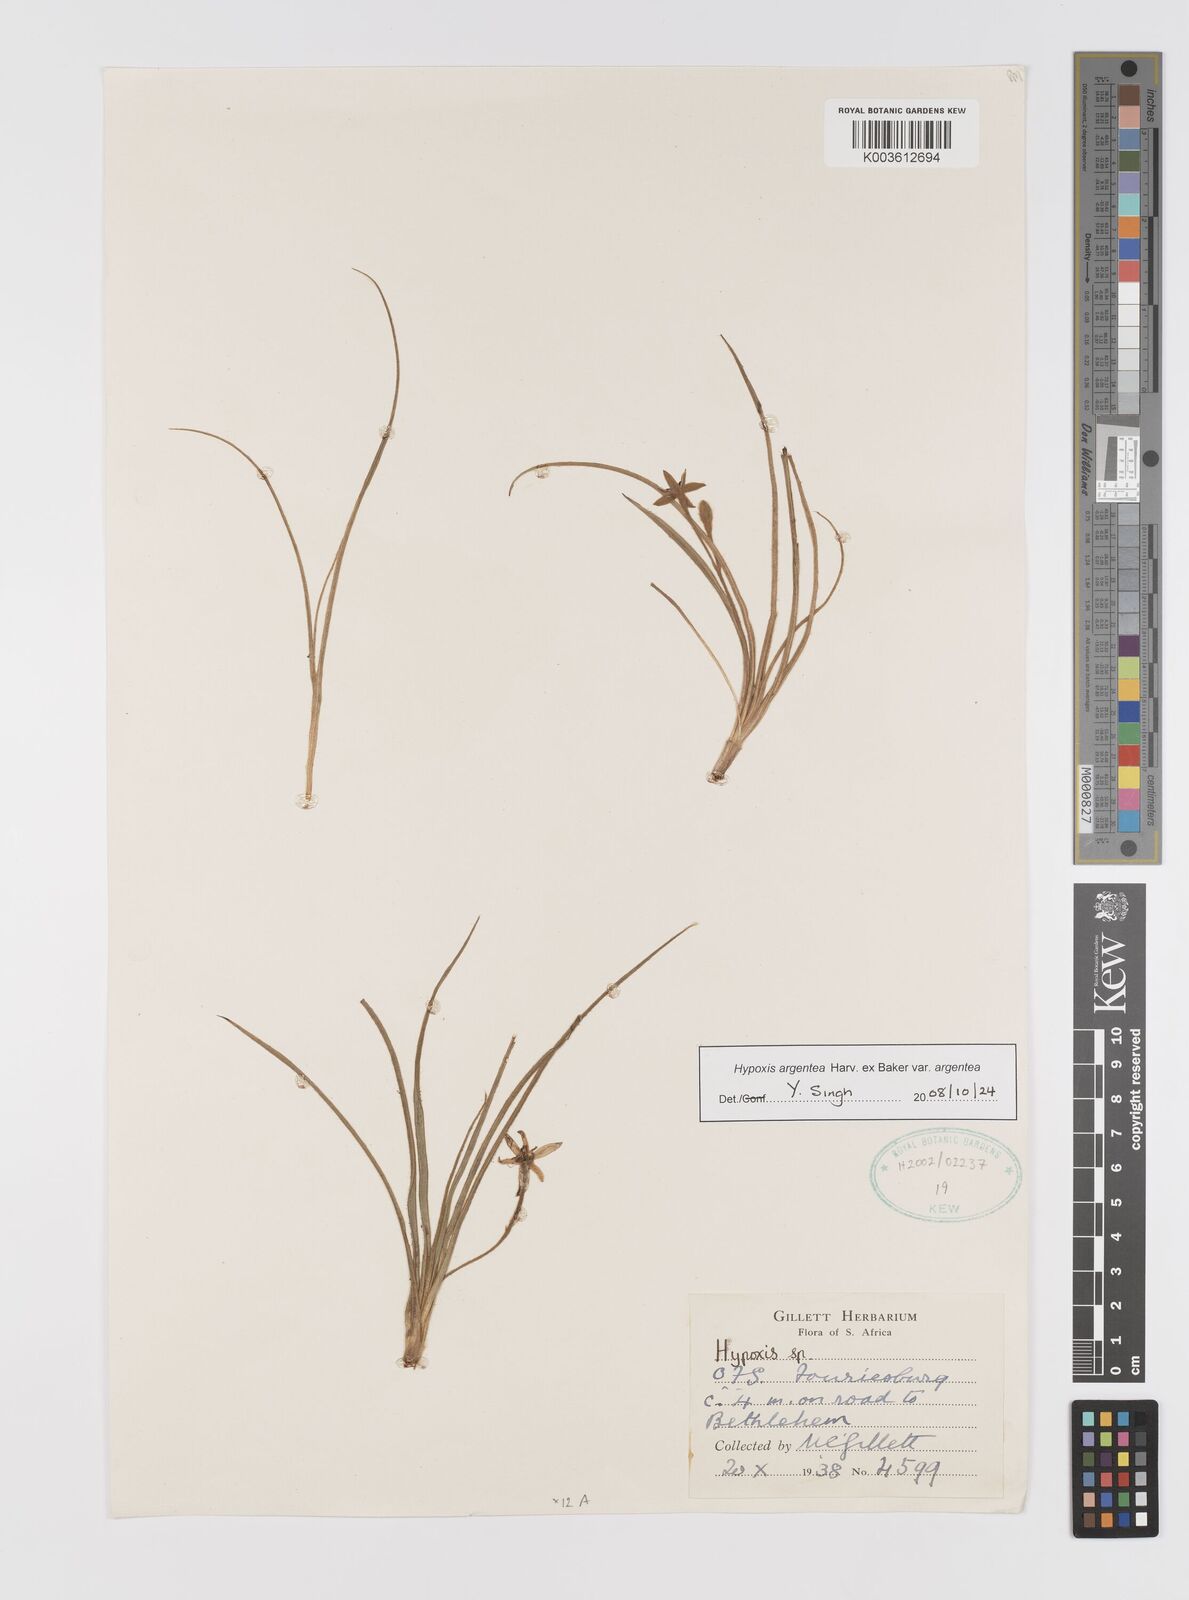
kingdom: Plantae
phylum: Tracheophyta
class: Liliopsida
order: Asparagales
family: Hypoxidaceae
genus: Hypoxis
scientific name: Hypoxis argentea
